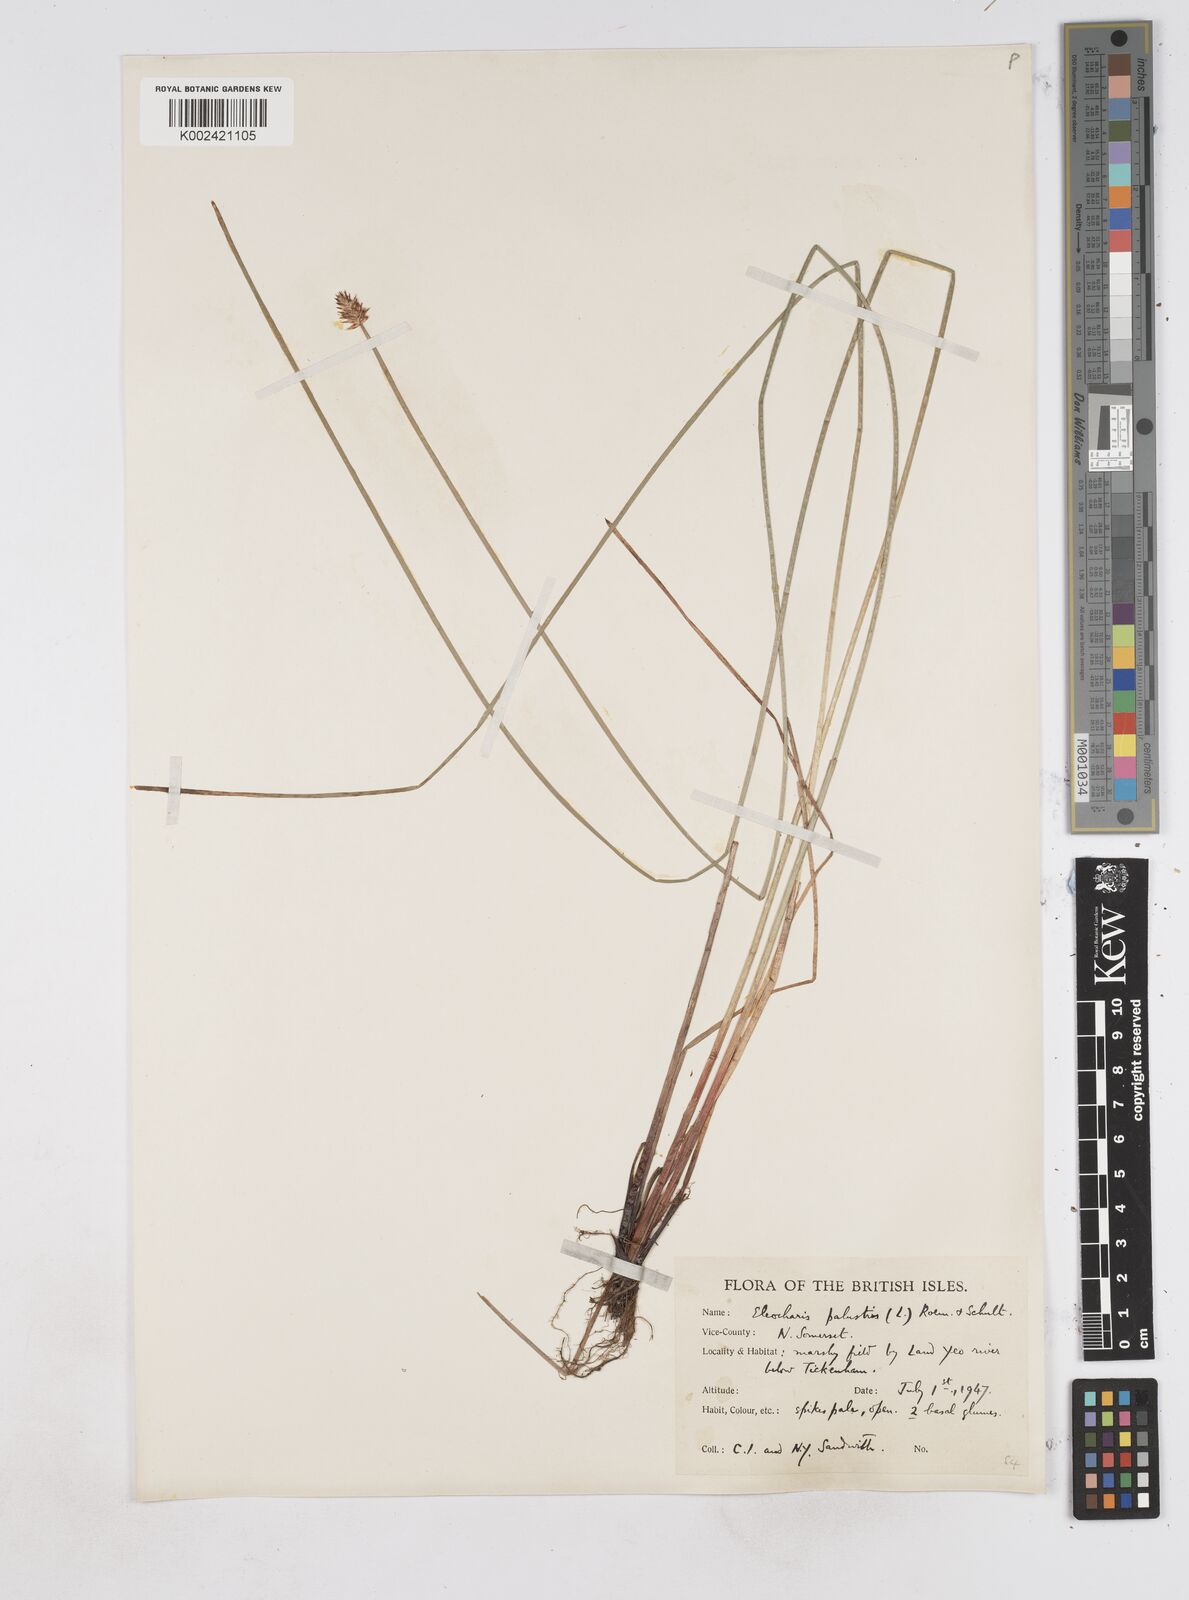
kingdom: Plantae
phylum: Tracheophyta
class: Liliopsida
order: Poales
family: Cyperaceae
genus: Eleocharis
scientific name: Eleocharis palustris
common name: Common spike-rush
